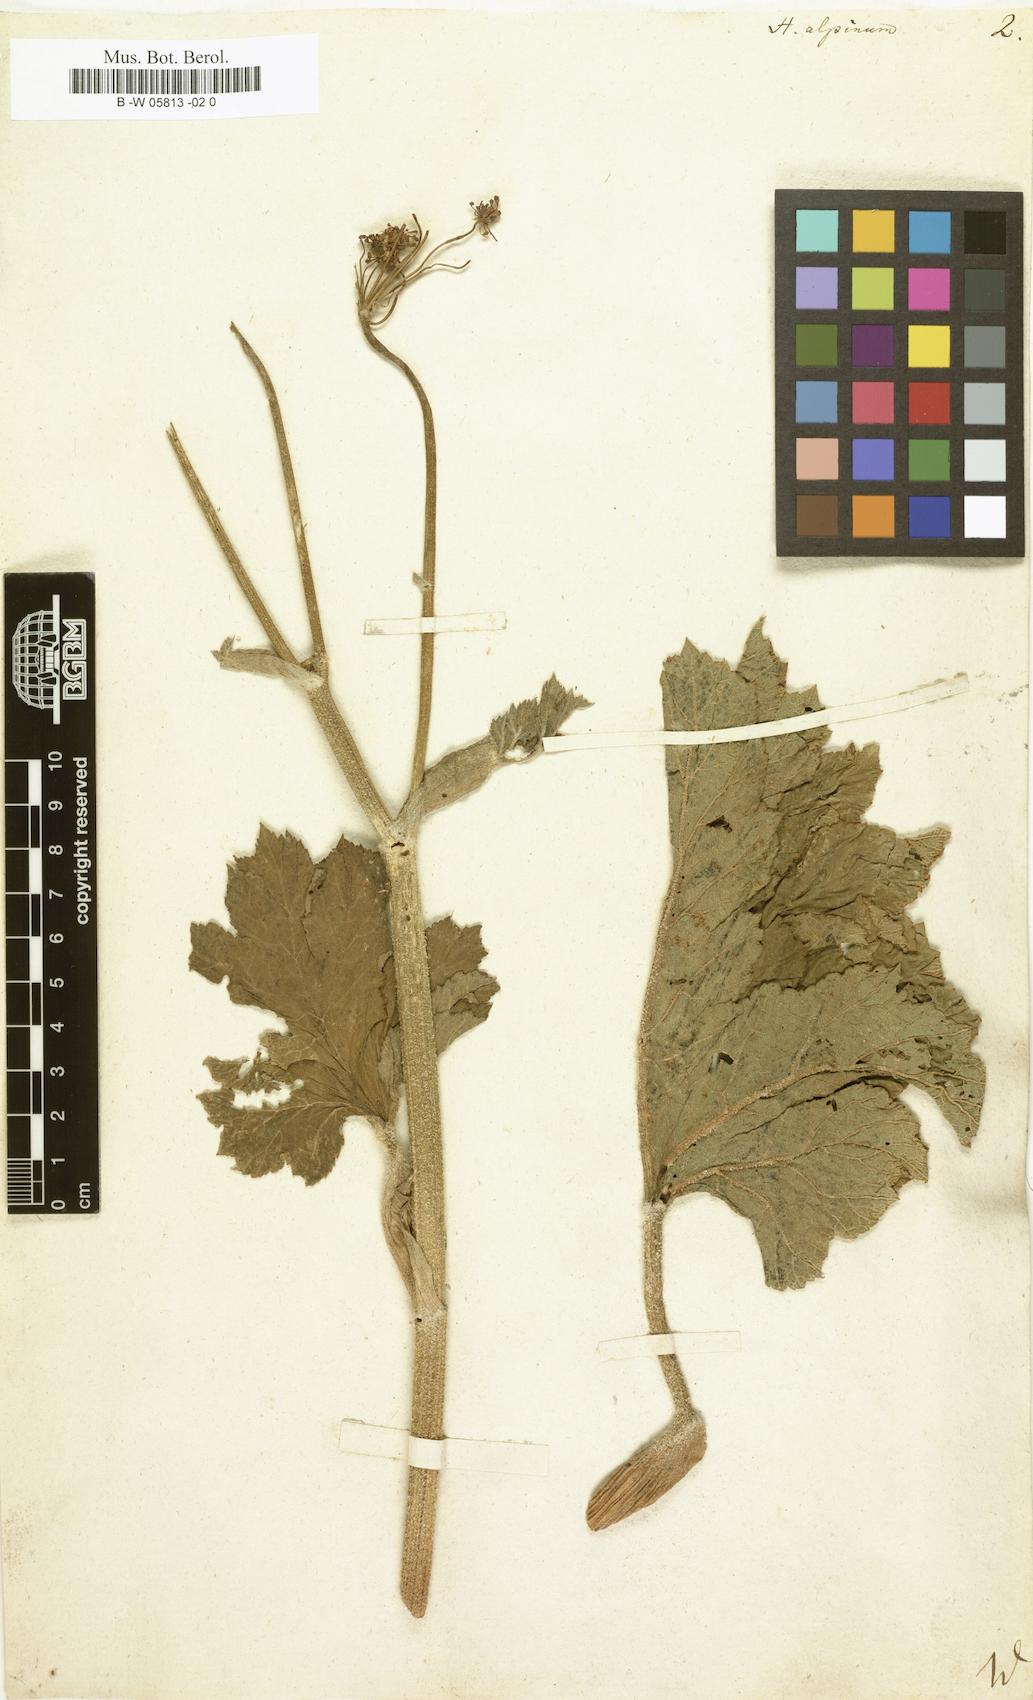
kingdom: Plantae
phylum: Tracheophyta
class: Magnoliopsida
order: Apiales
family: Apiaceae
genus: Heracleum
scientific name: Heracleum alpinum
